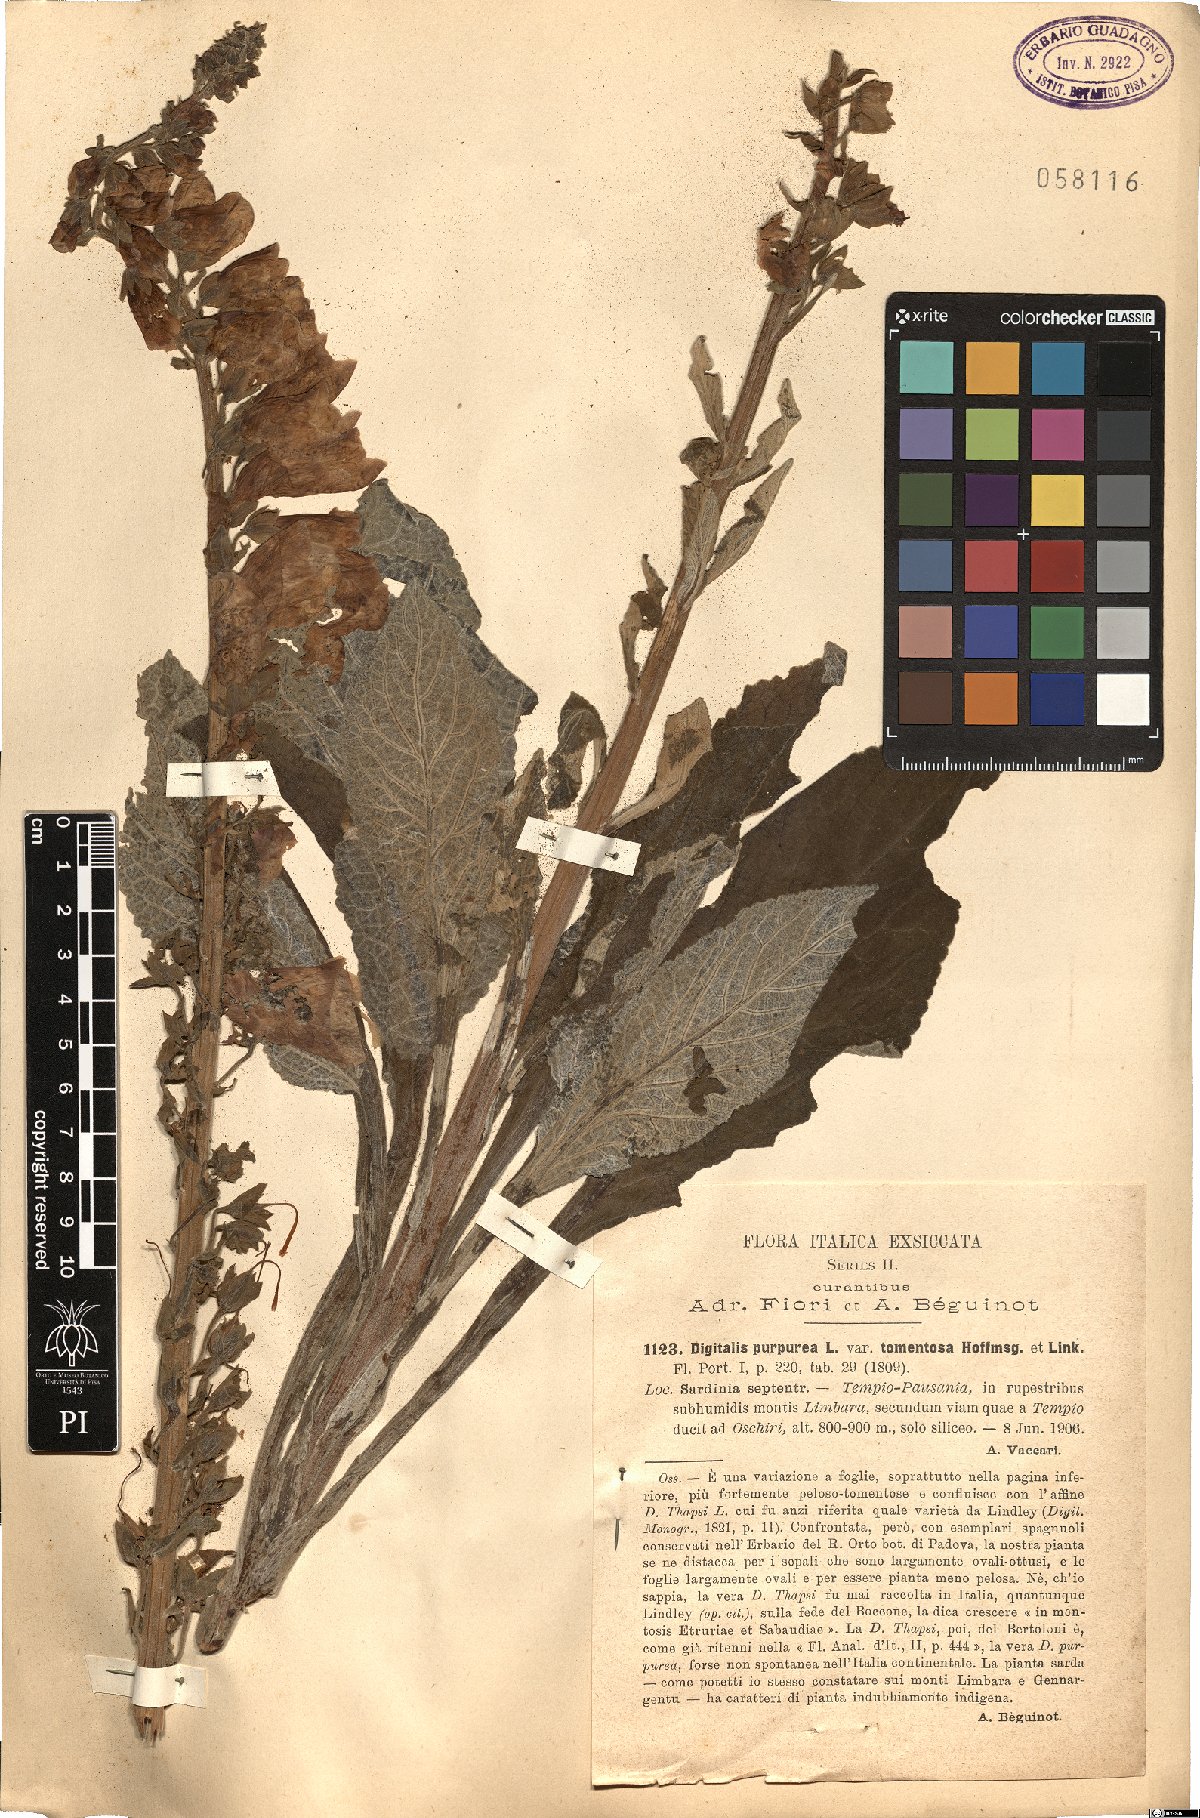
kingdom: Plantae
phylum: Tracheophyta
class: Magnoliopsida
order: Lamiales
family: Plantaginaceae
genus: Digitalis
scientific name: Digitalis purpurea
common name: Foxglove
